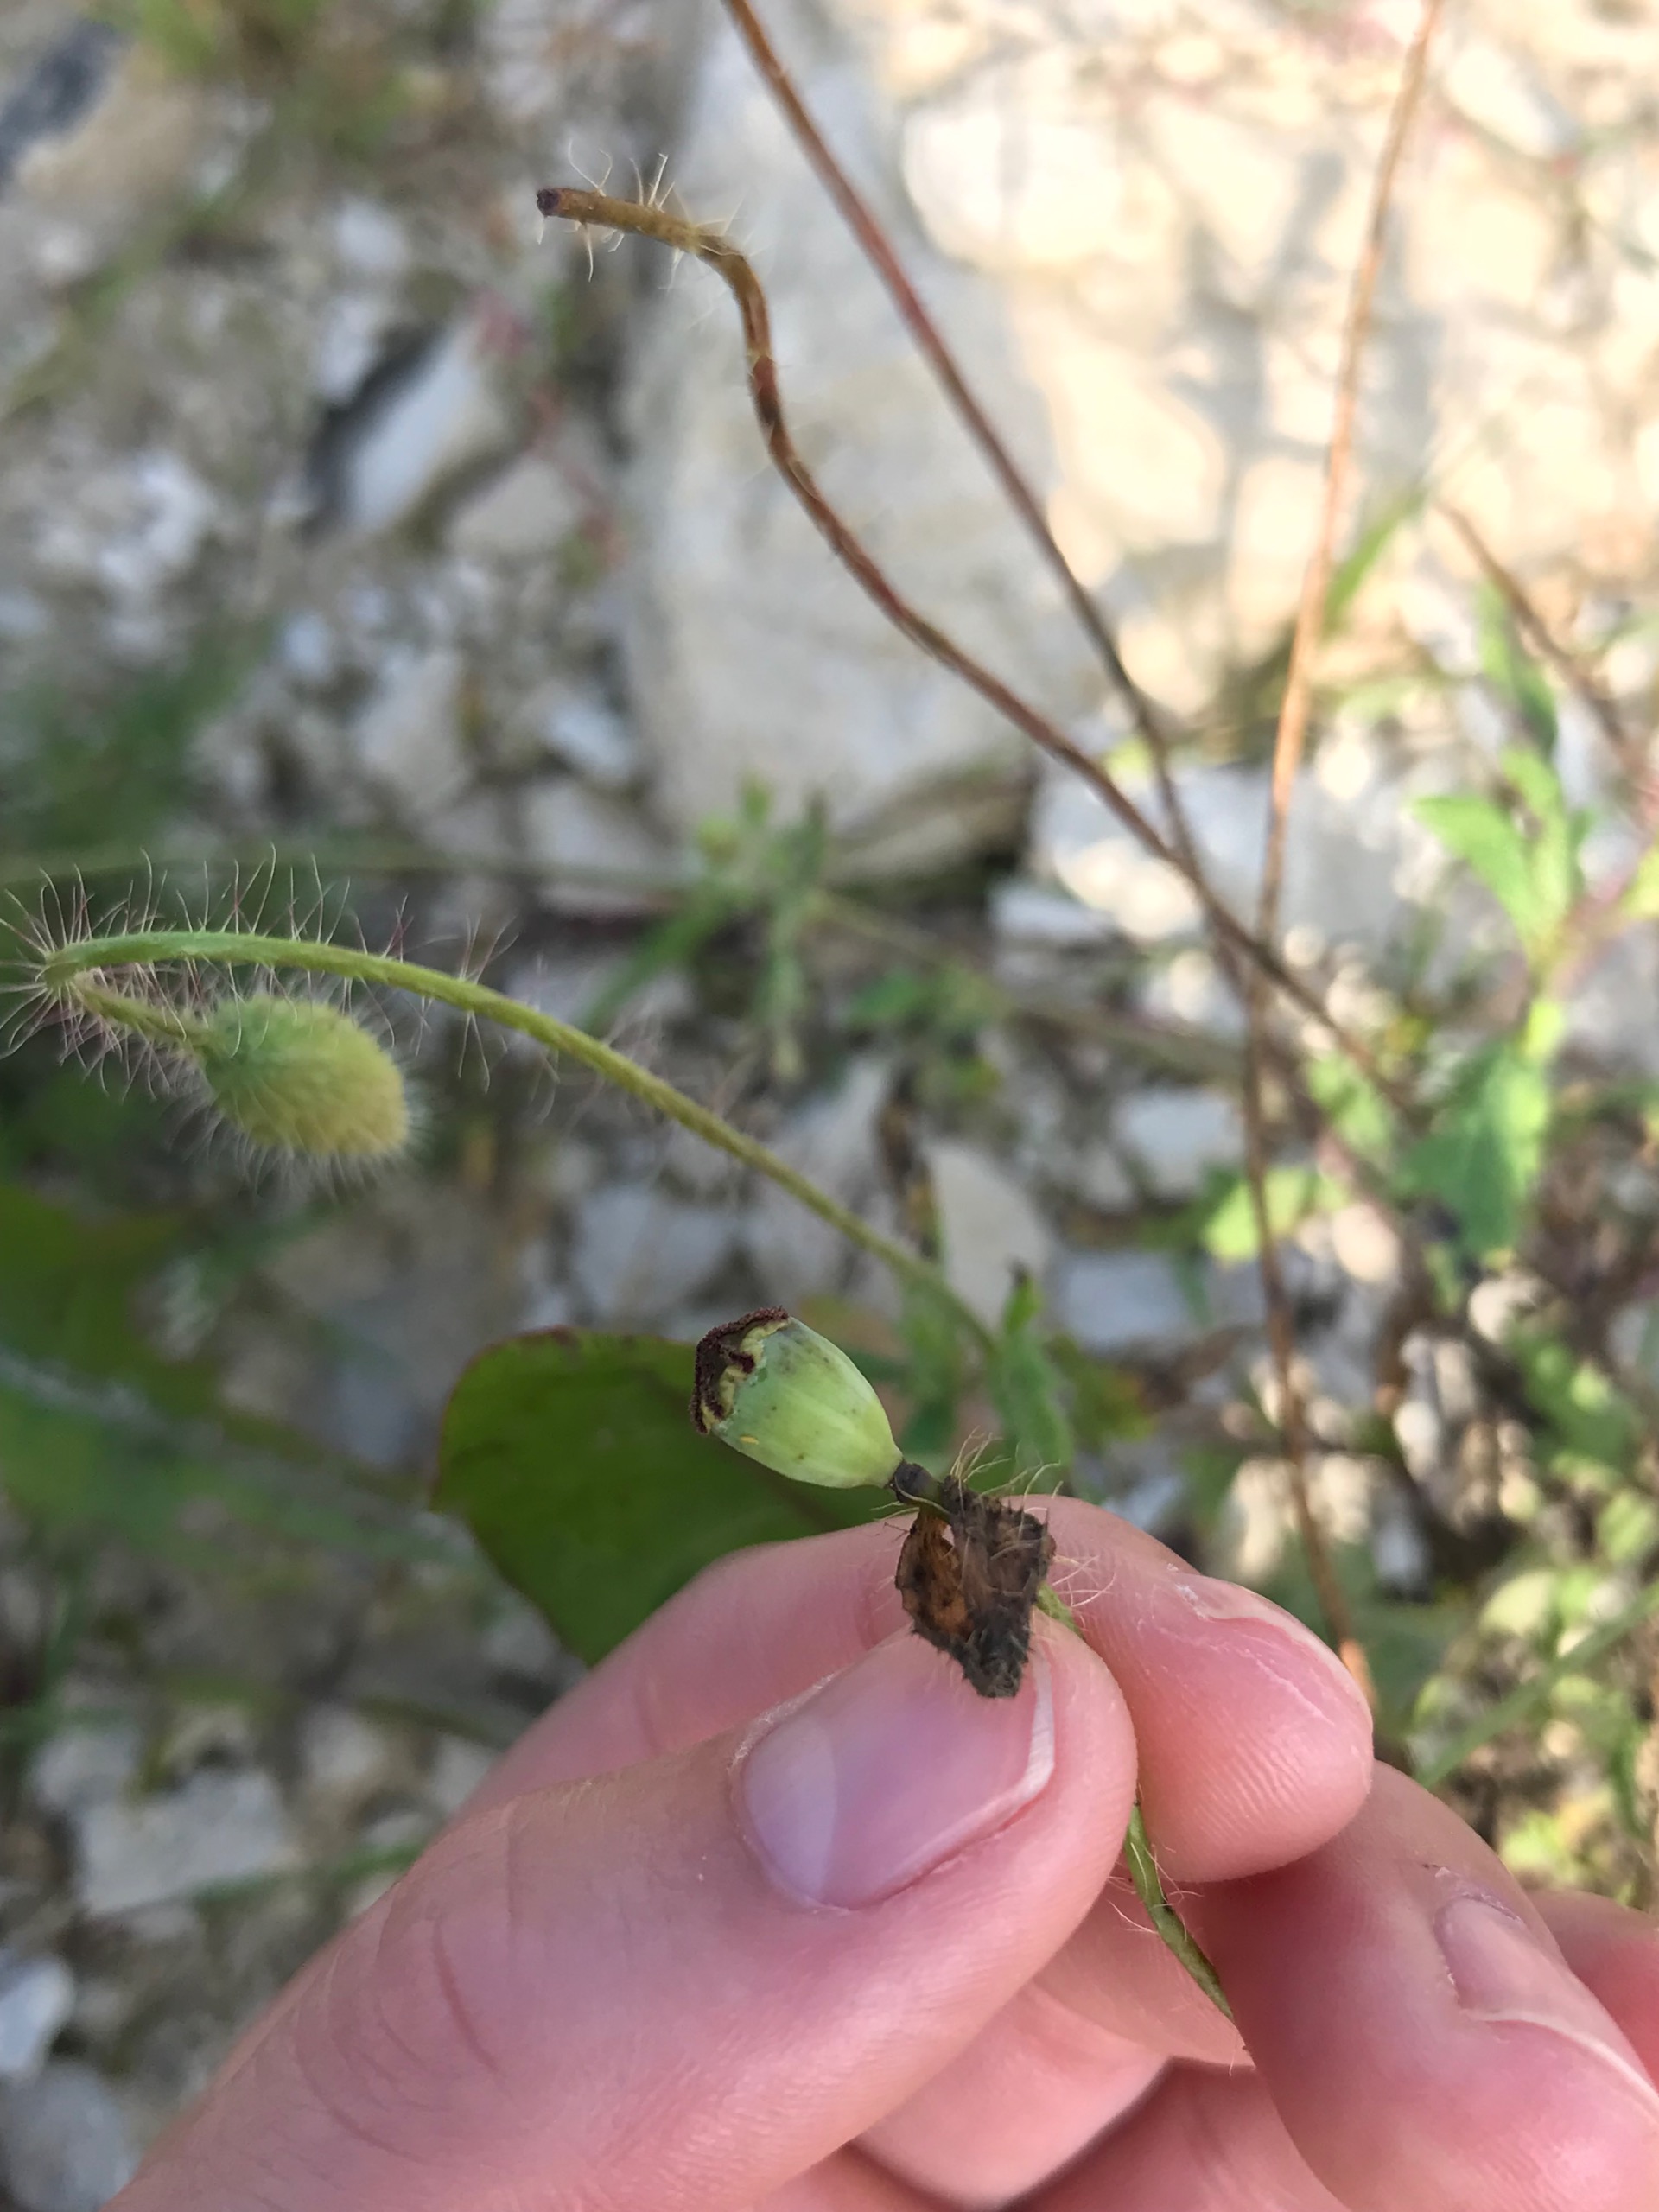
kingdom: Plantae
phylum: Tracheophyta
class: Magnoliopsida
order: Ranunculales
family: Papaveraceae
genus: Papaver
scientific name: Papaver rhoeas
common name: Korn-valmue
